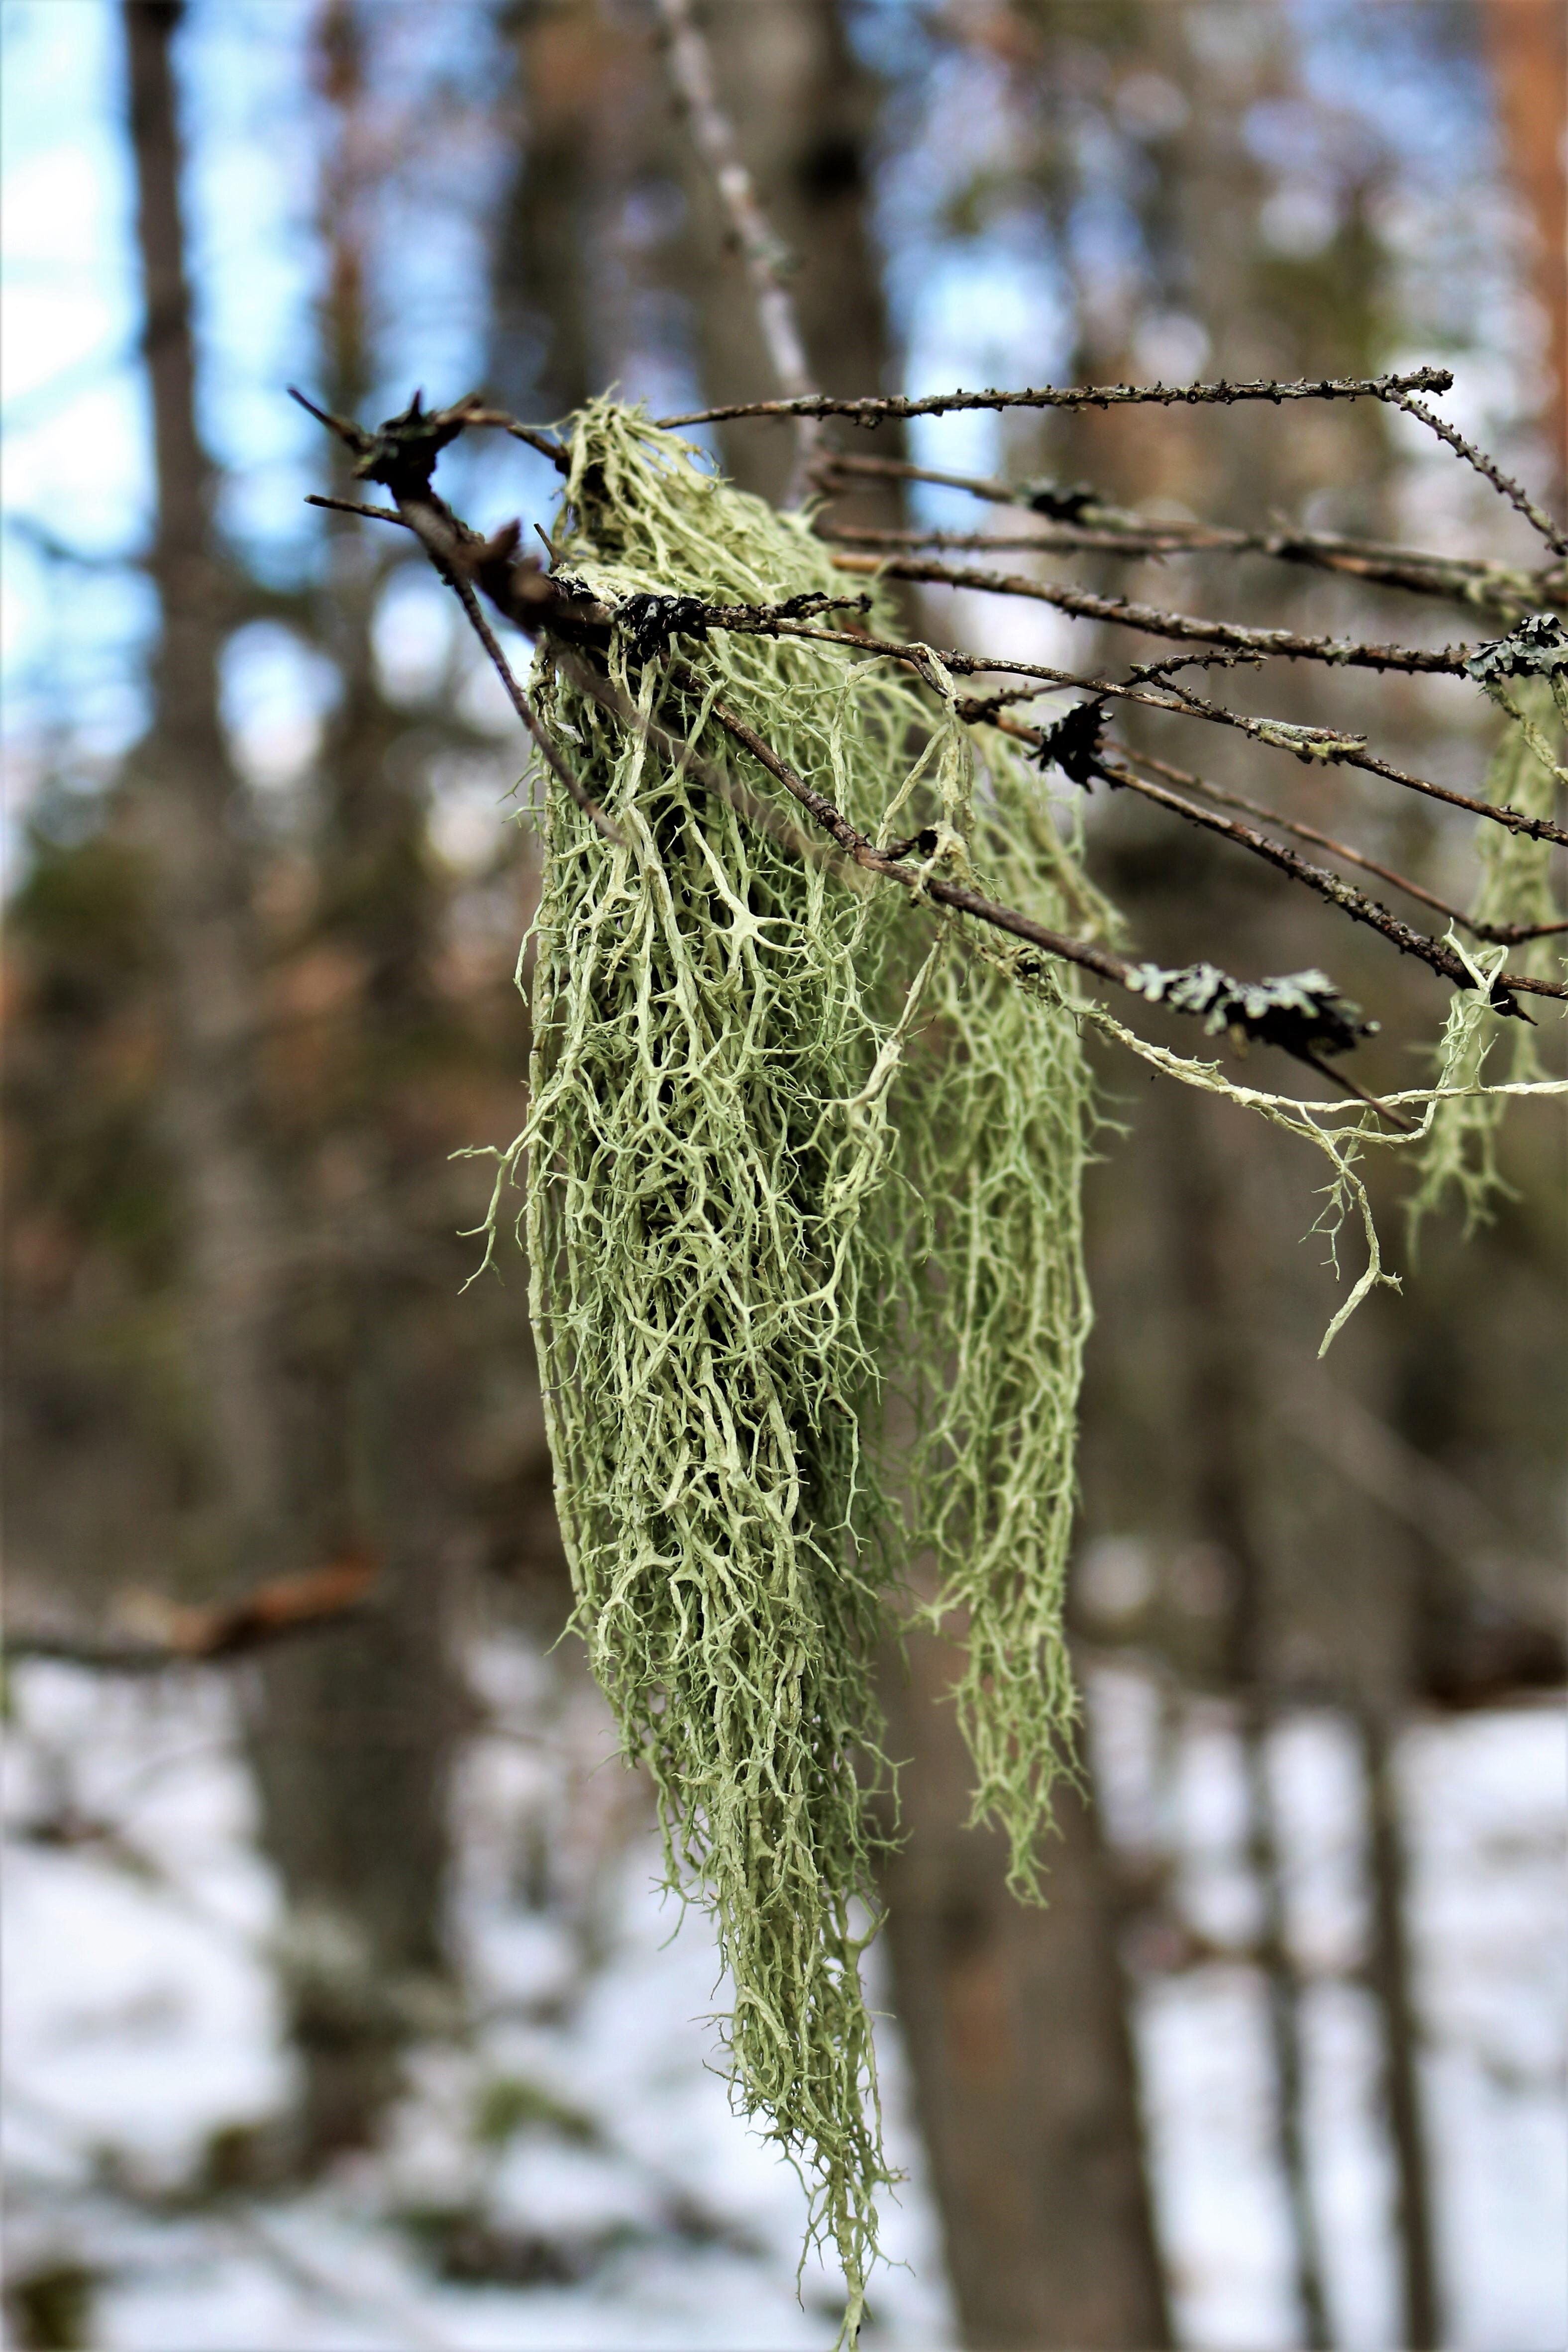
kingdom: Fungi
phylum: Ascomycota
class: Lecanoromycetes
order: Lecanorales
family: Parmeliaceae
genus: Evernia
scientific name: Evernia divaricata
